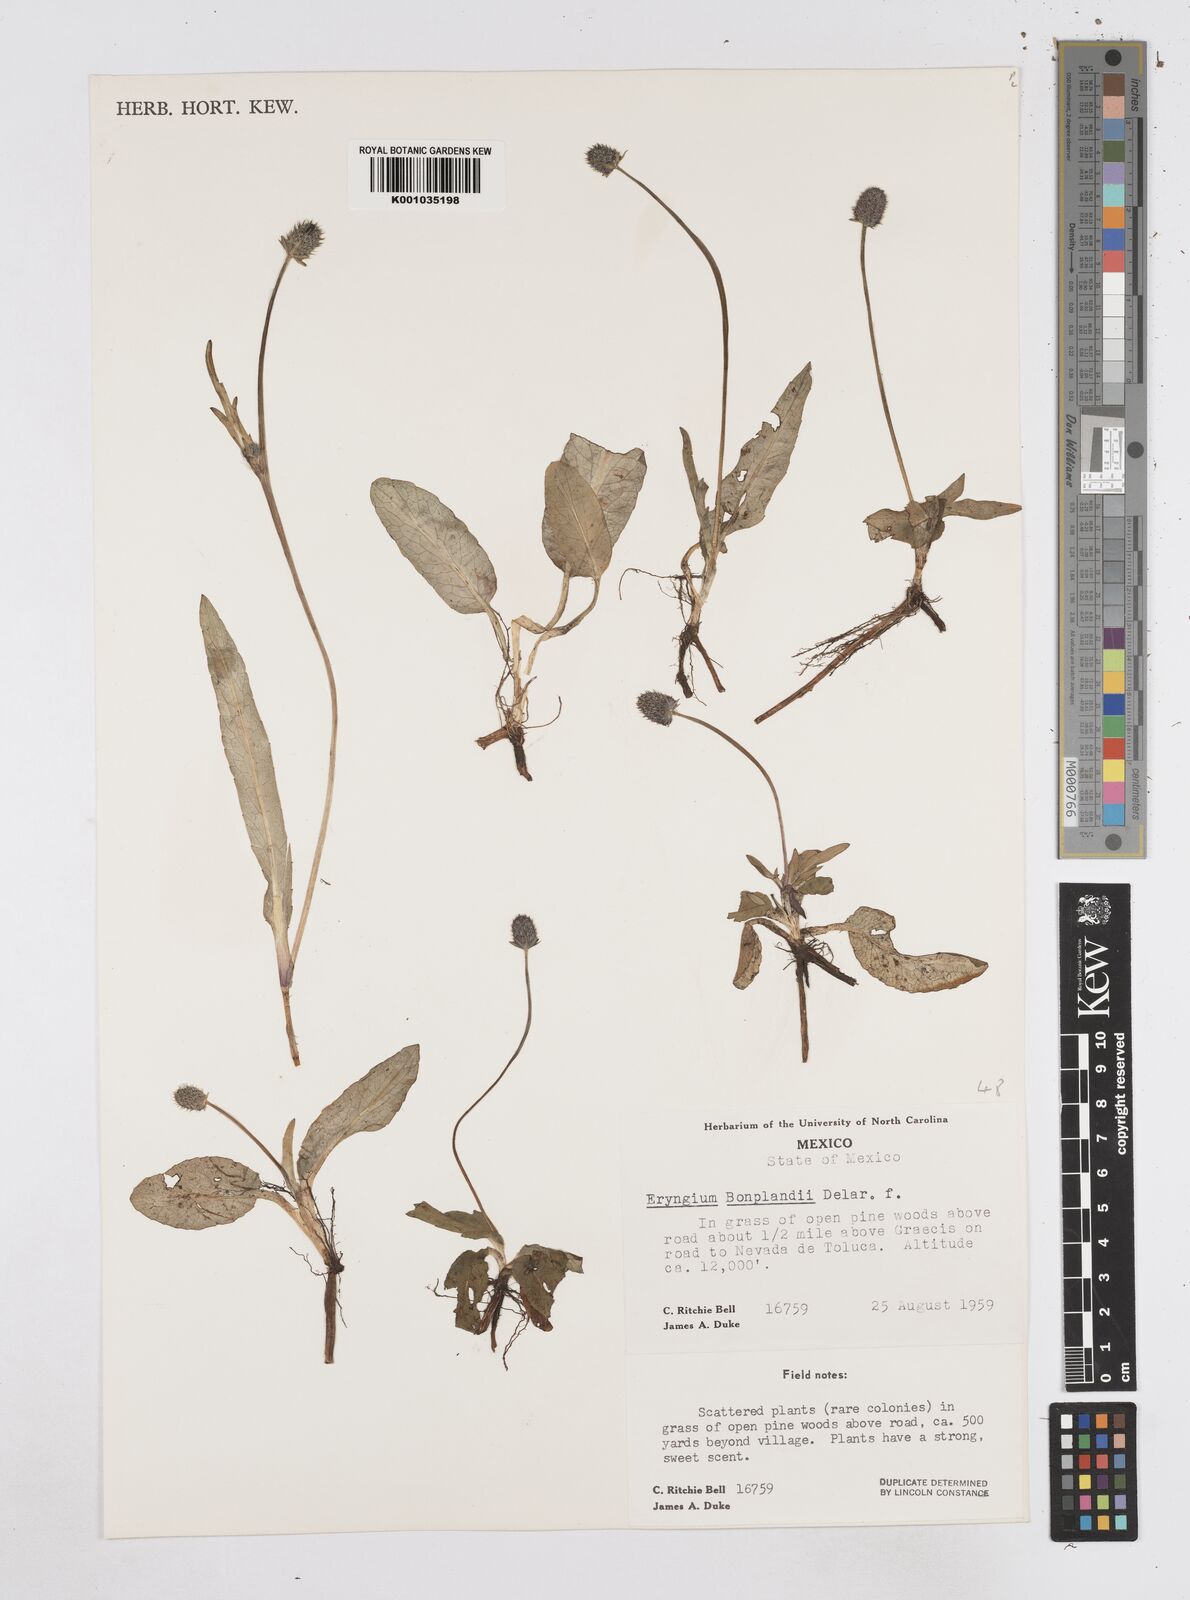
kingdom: Plantae
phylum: Tracheophyta
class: Magnoliopsida
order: Apiales
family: Apiaceae
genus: Eryngium
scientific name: Eryngium bonplandii
